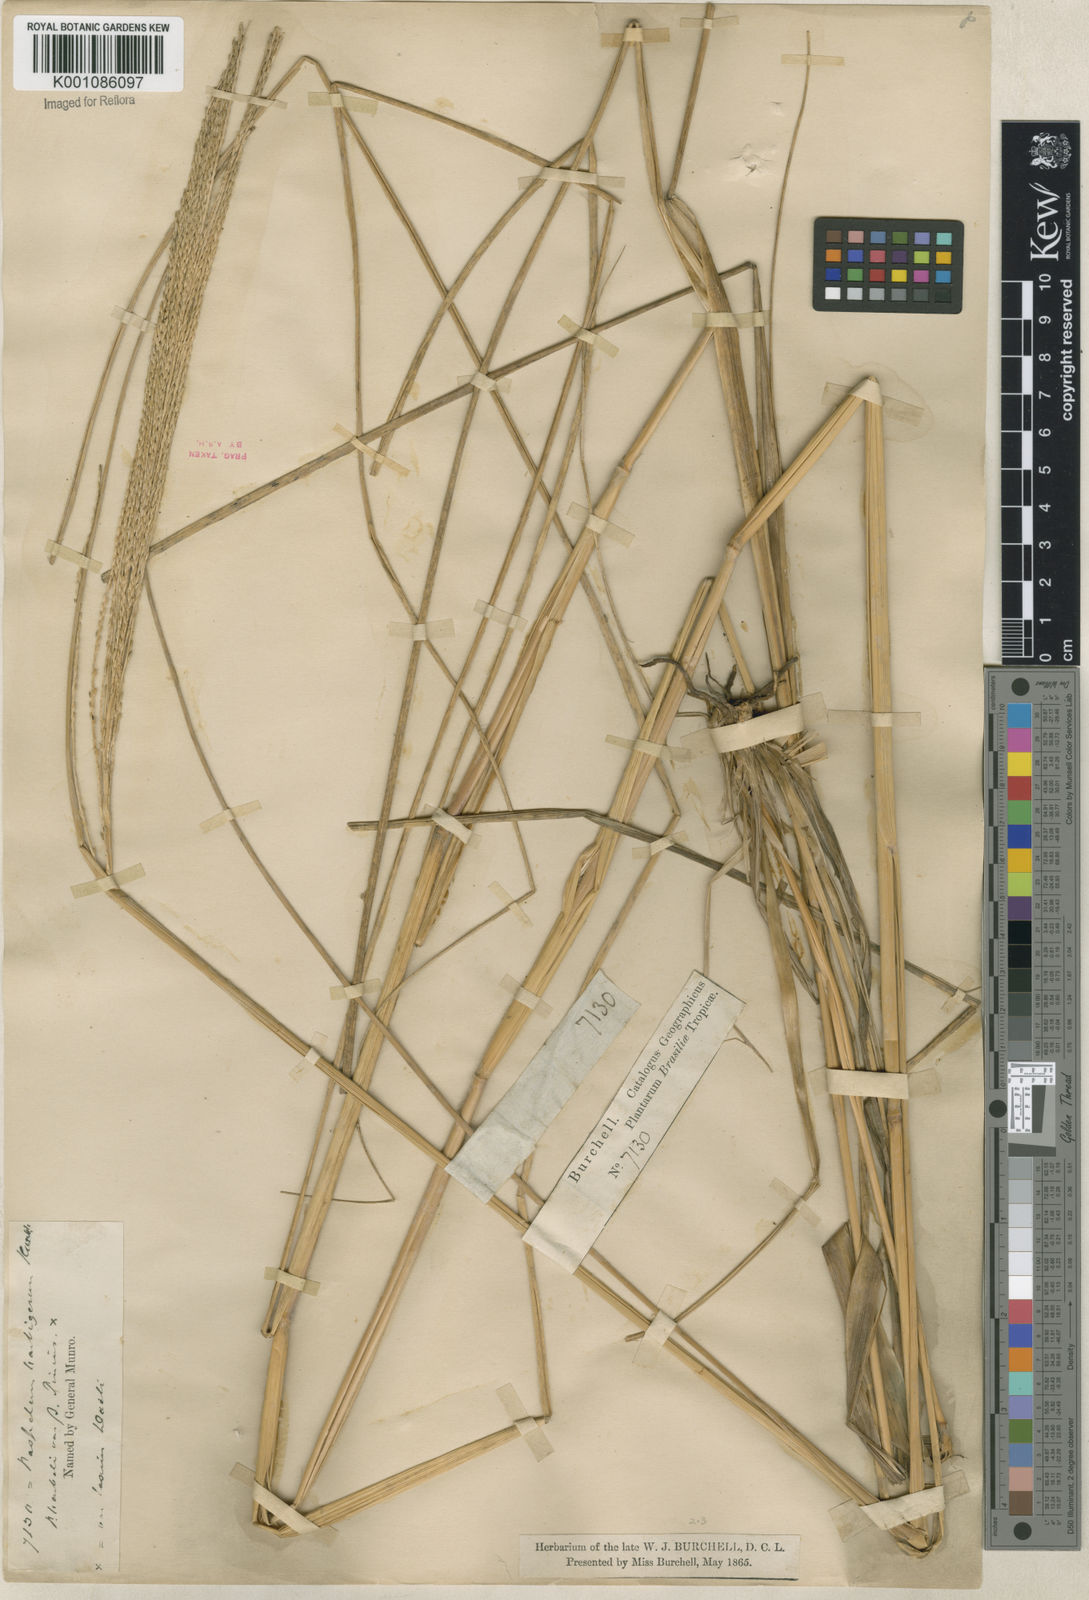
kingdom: Plantae
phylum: Tracheophyta
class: Liliopsida
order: Poales
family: Poaceae
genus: Axonopus
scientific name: Axonopus eminens
